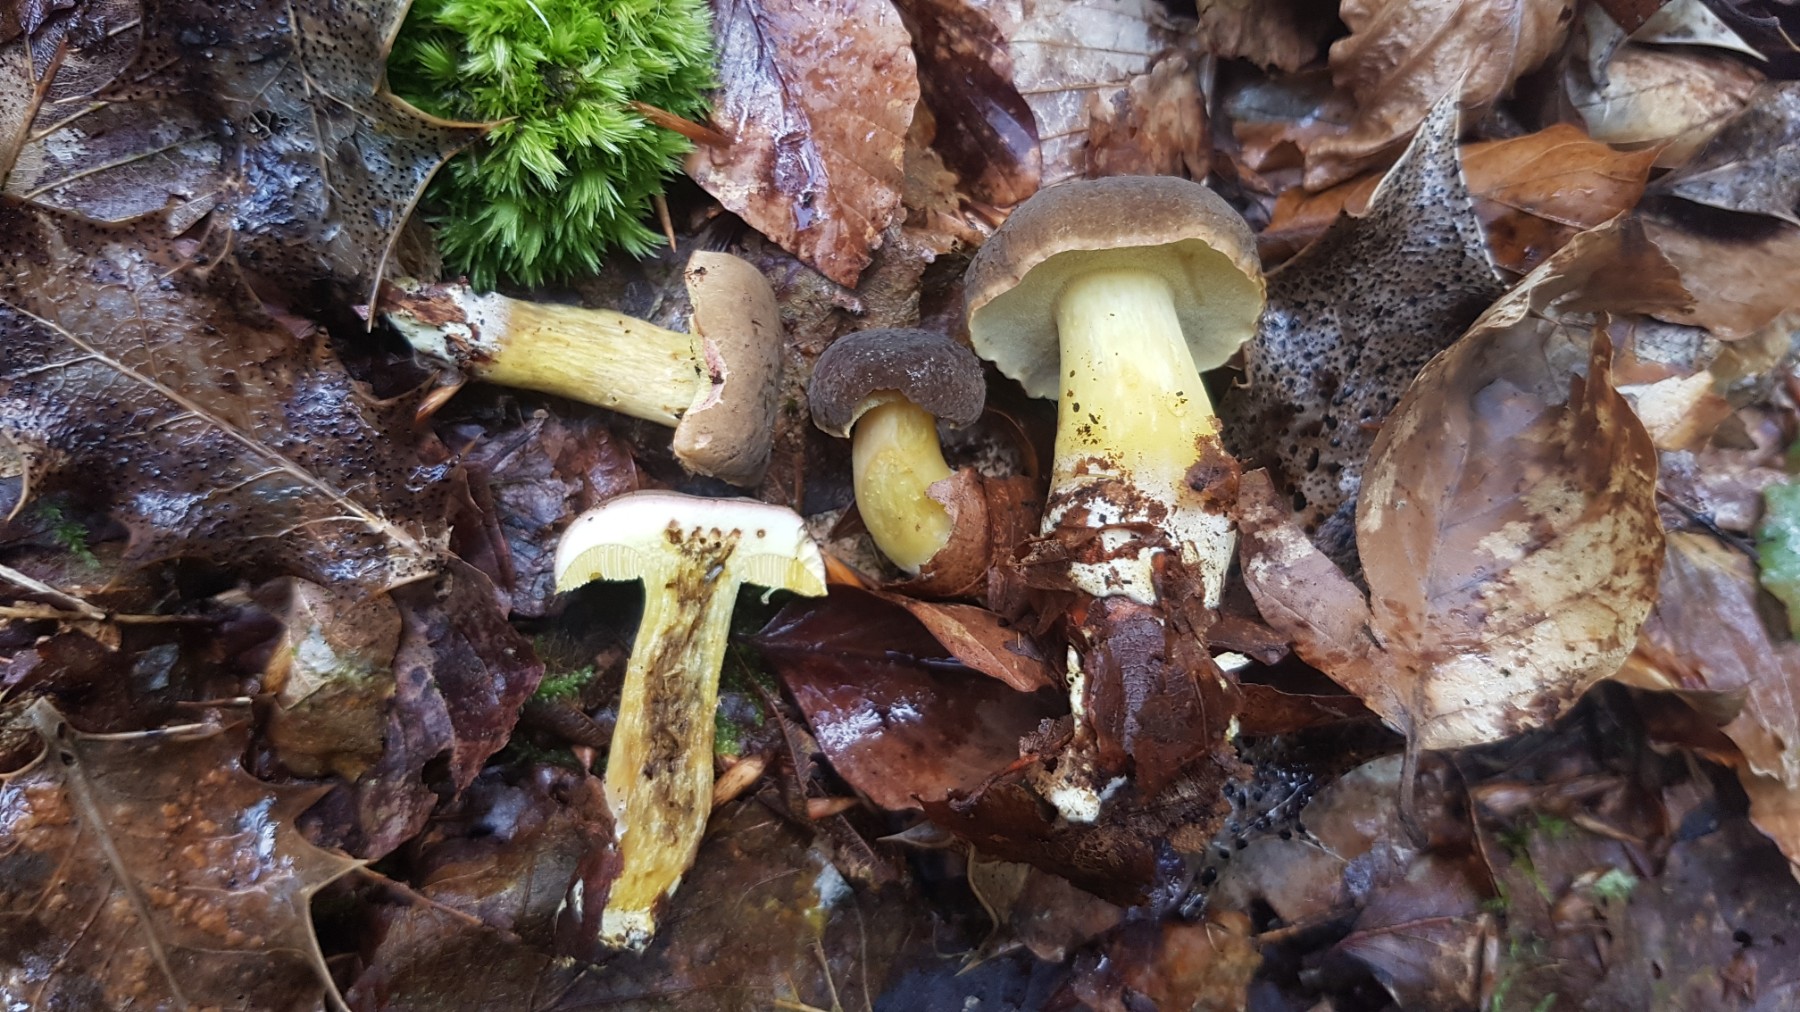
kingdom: Fungi
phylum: Basidiomycota
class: Agaricomycetes
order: Boletales
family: Boletaceae
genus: Xerocomellus
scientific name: Xerocomellus pruinatus
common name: dugget rørhat
